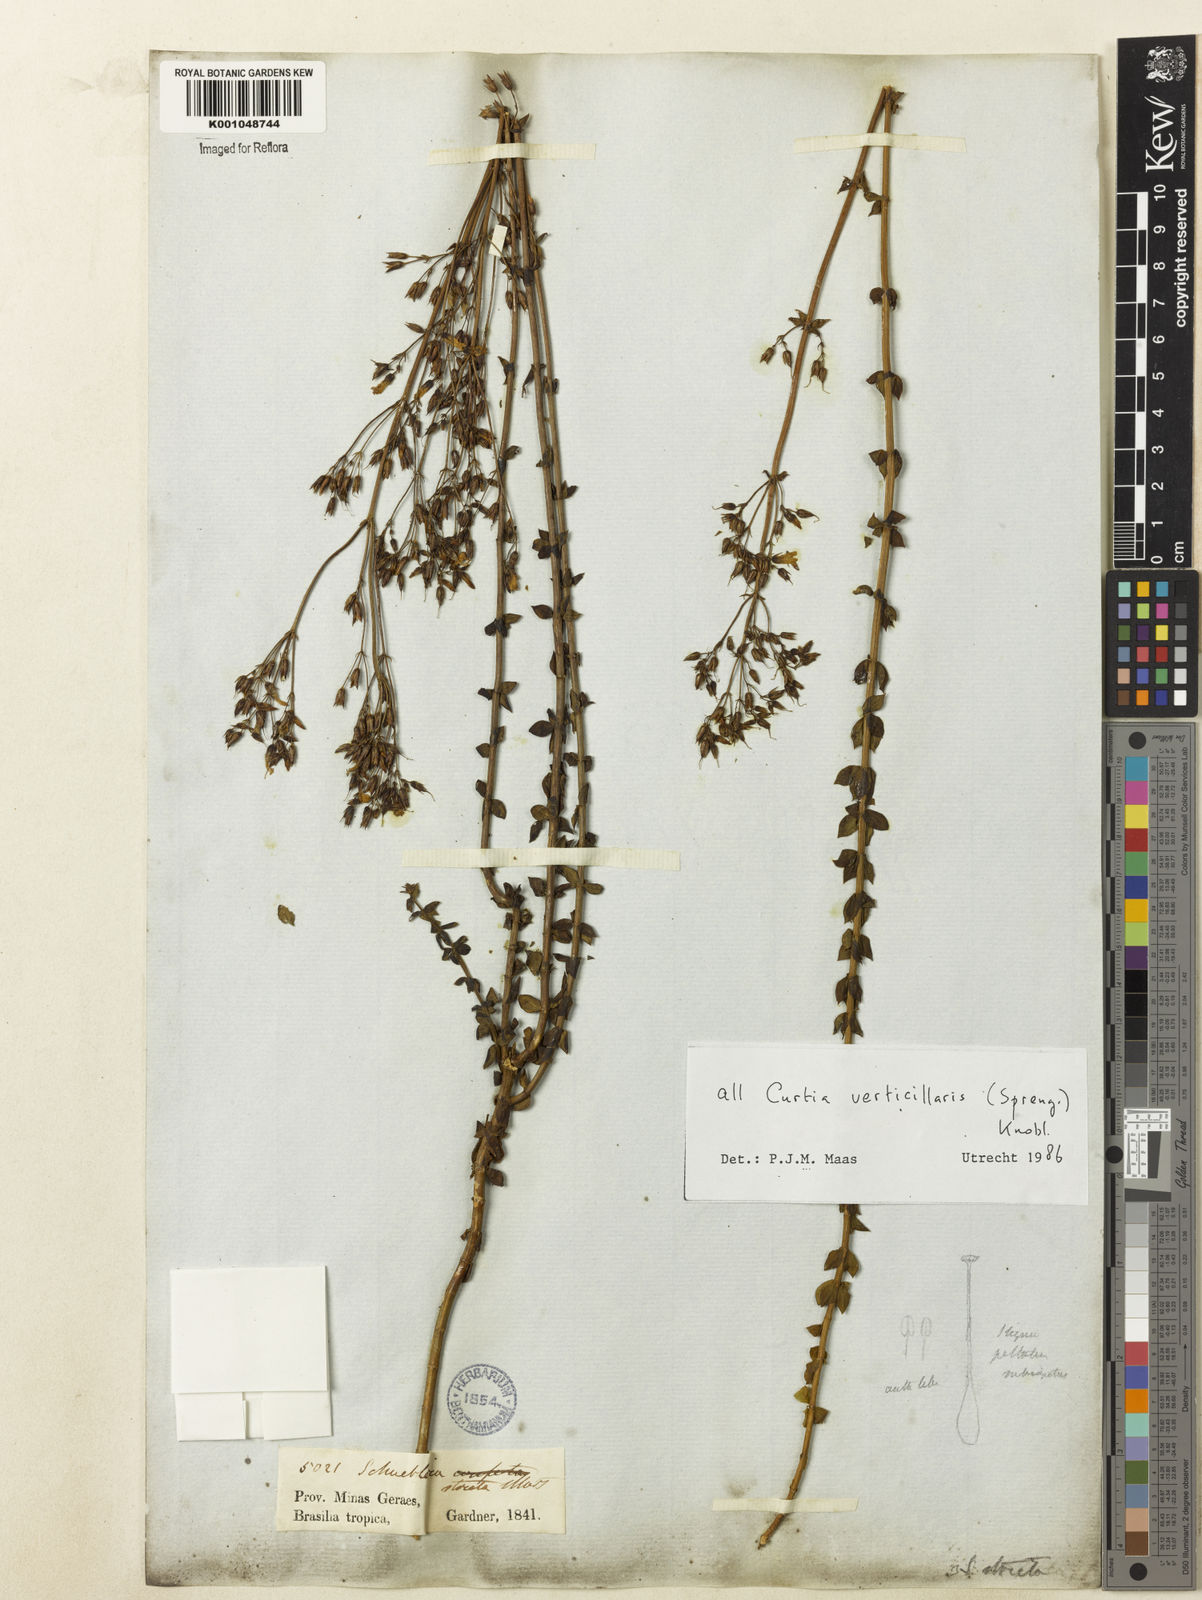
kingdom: Plantae
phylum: Tracheophyta
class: Magnoliopsida
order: Gentianales
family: Gentianaceae
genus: Curtia
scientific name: Curtia verticillaris
